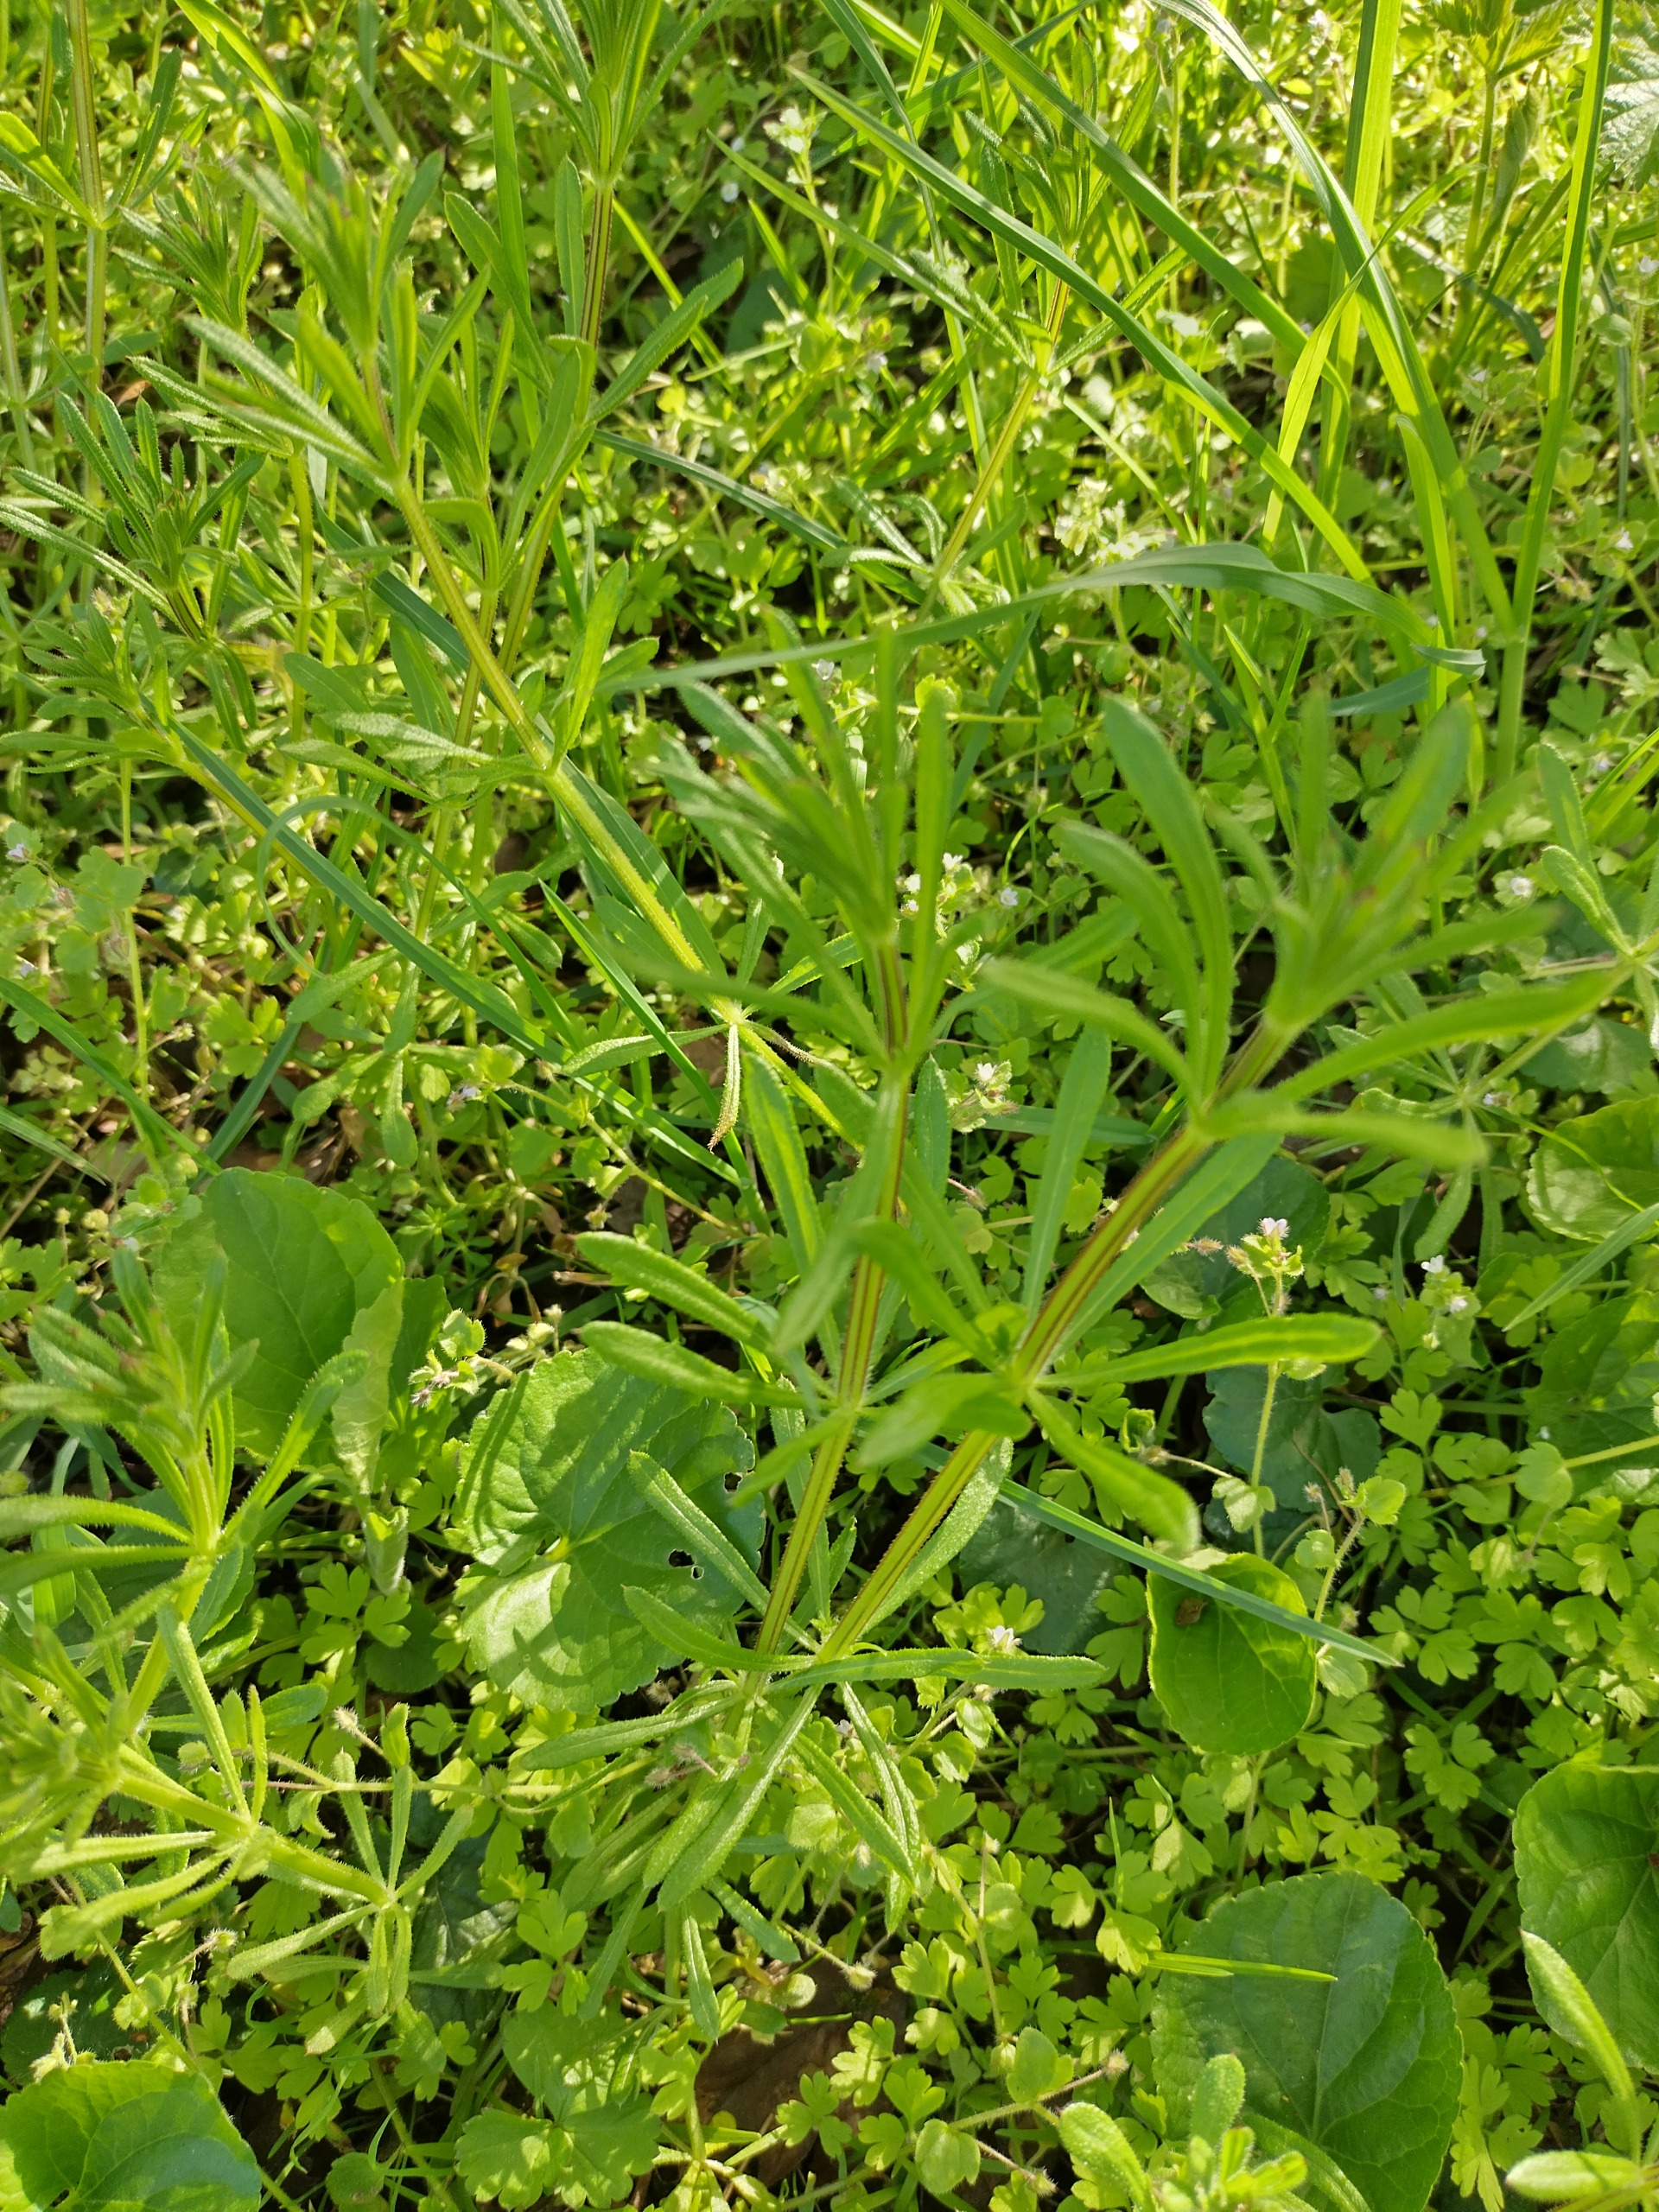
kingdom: Plantae
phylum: Tracheophyta
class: Magnoliopsida
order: Gentianales
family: Rubiaceae
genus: Galium
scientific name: Galium aparine
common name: Burre-snerre
